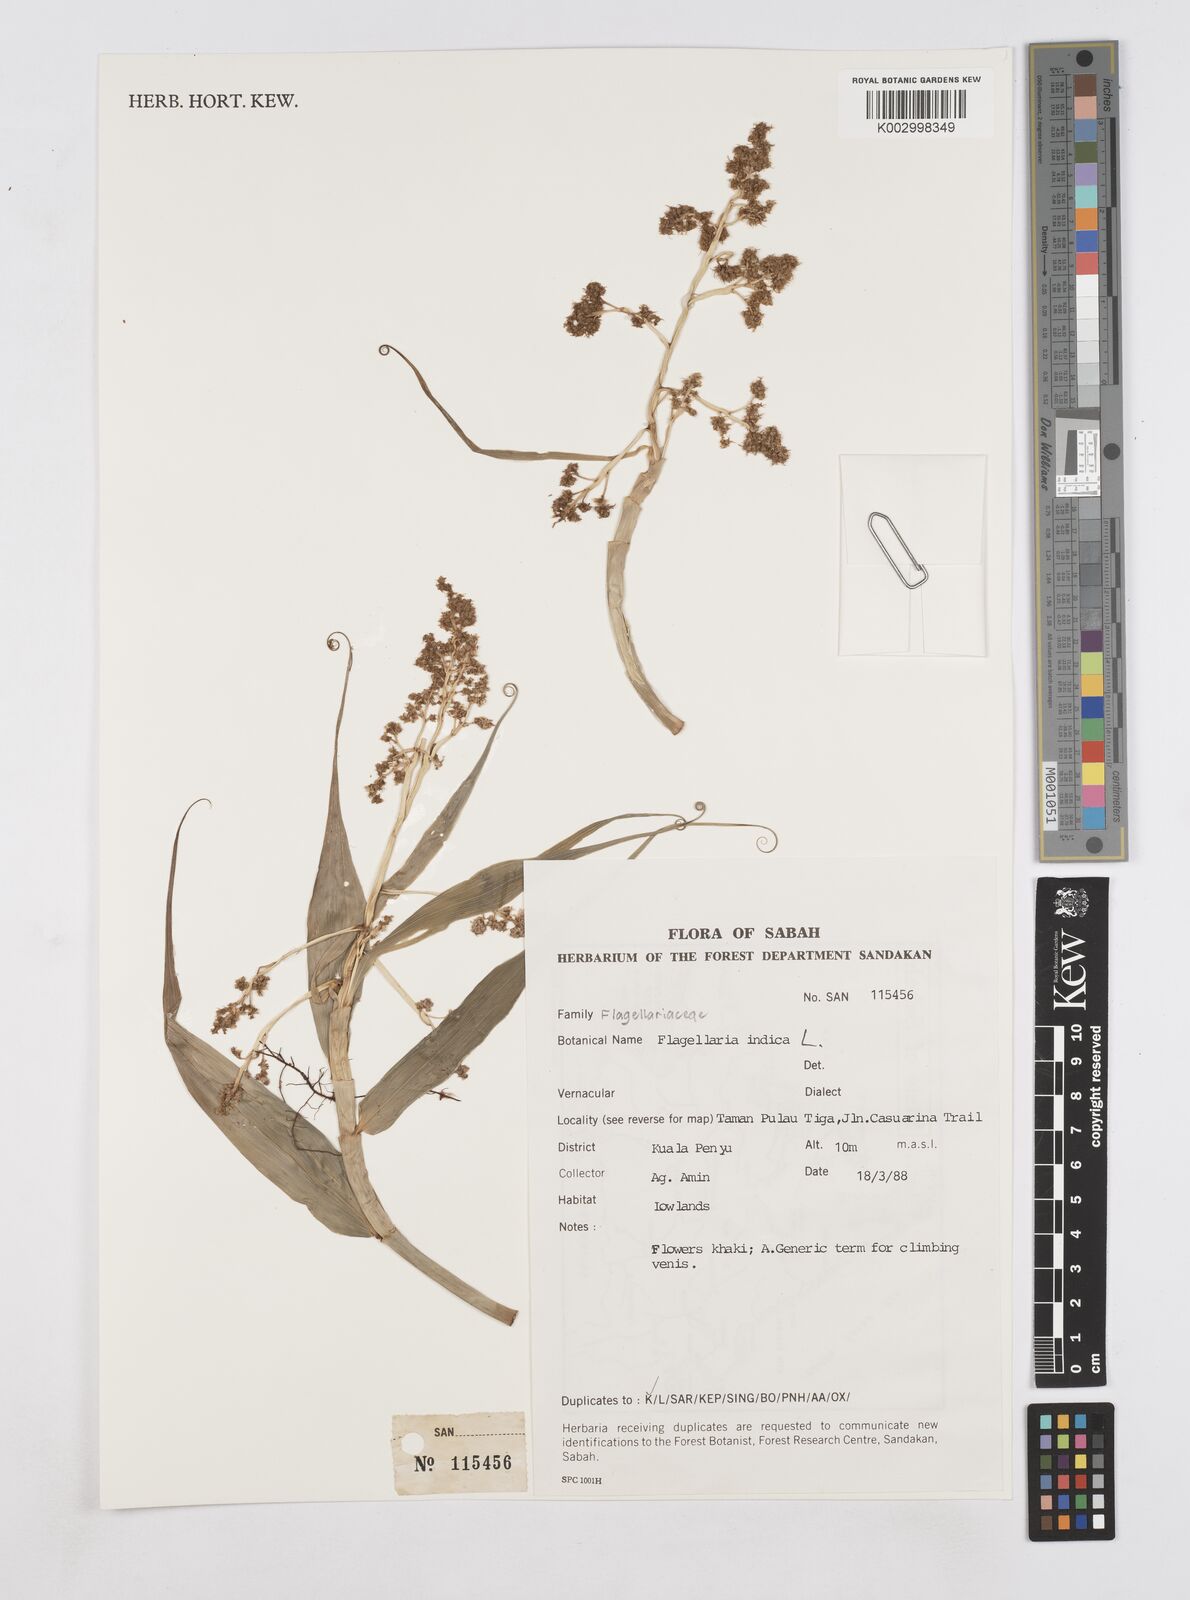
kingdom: Plantae
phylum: Tracheophyta
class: Liliopsida
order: Poales
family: Flagellariaceae
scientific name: Flagellariaceae
